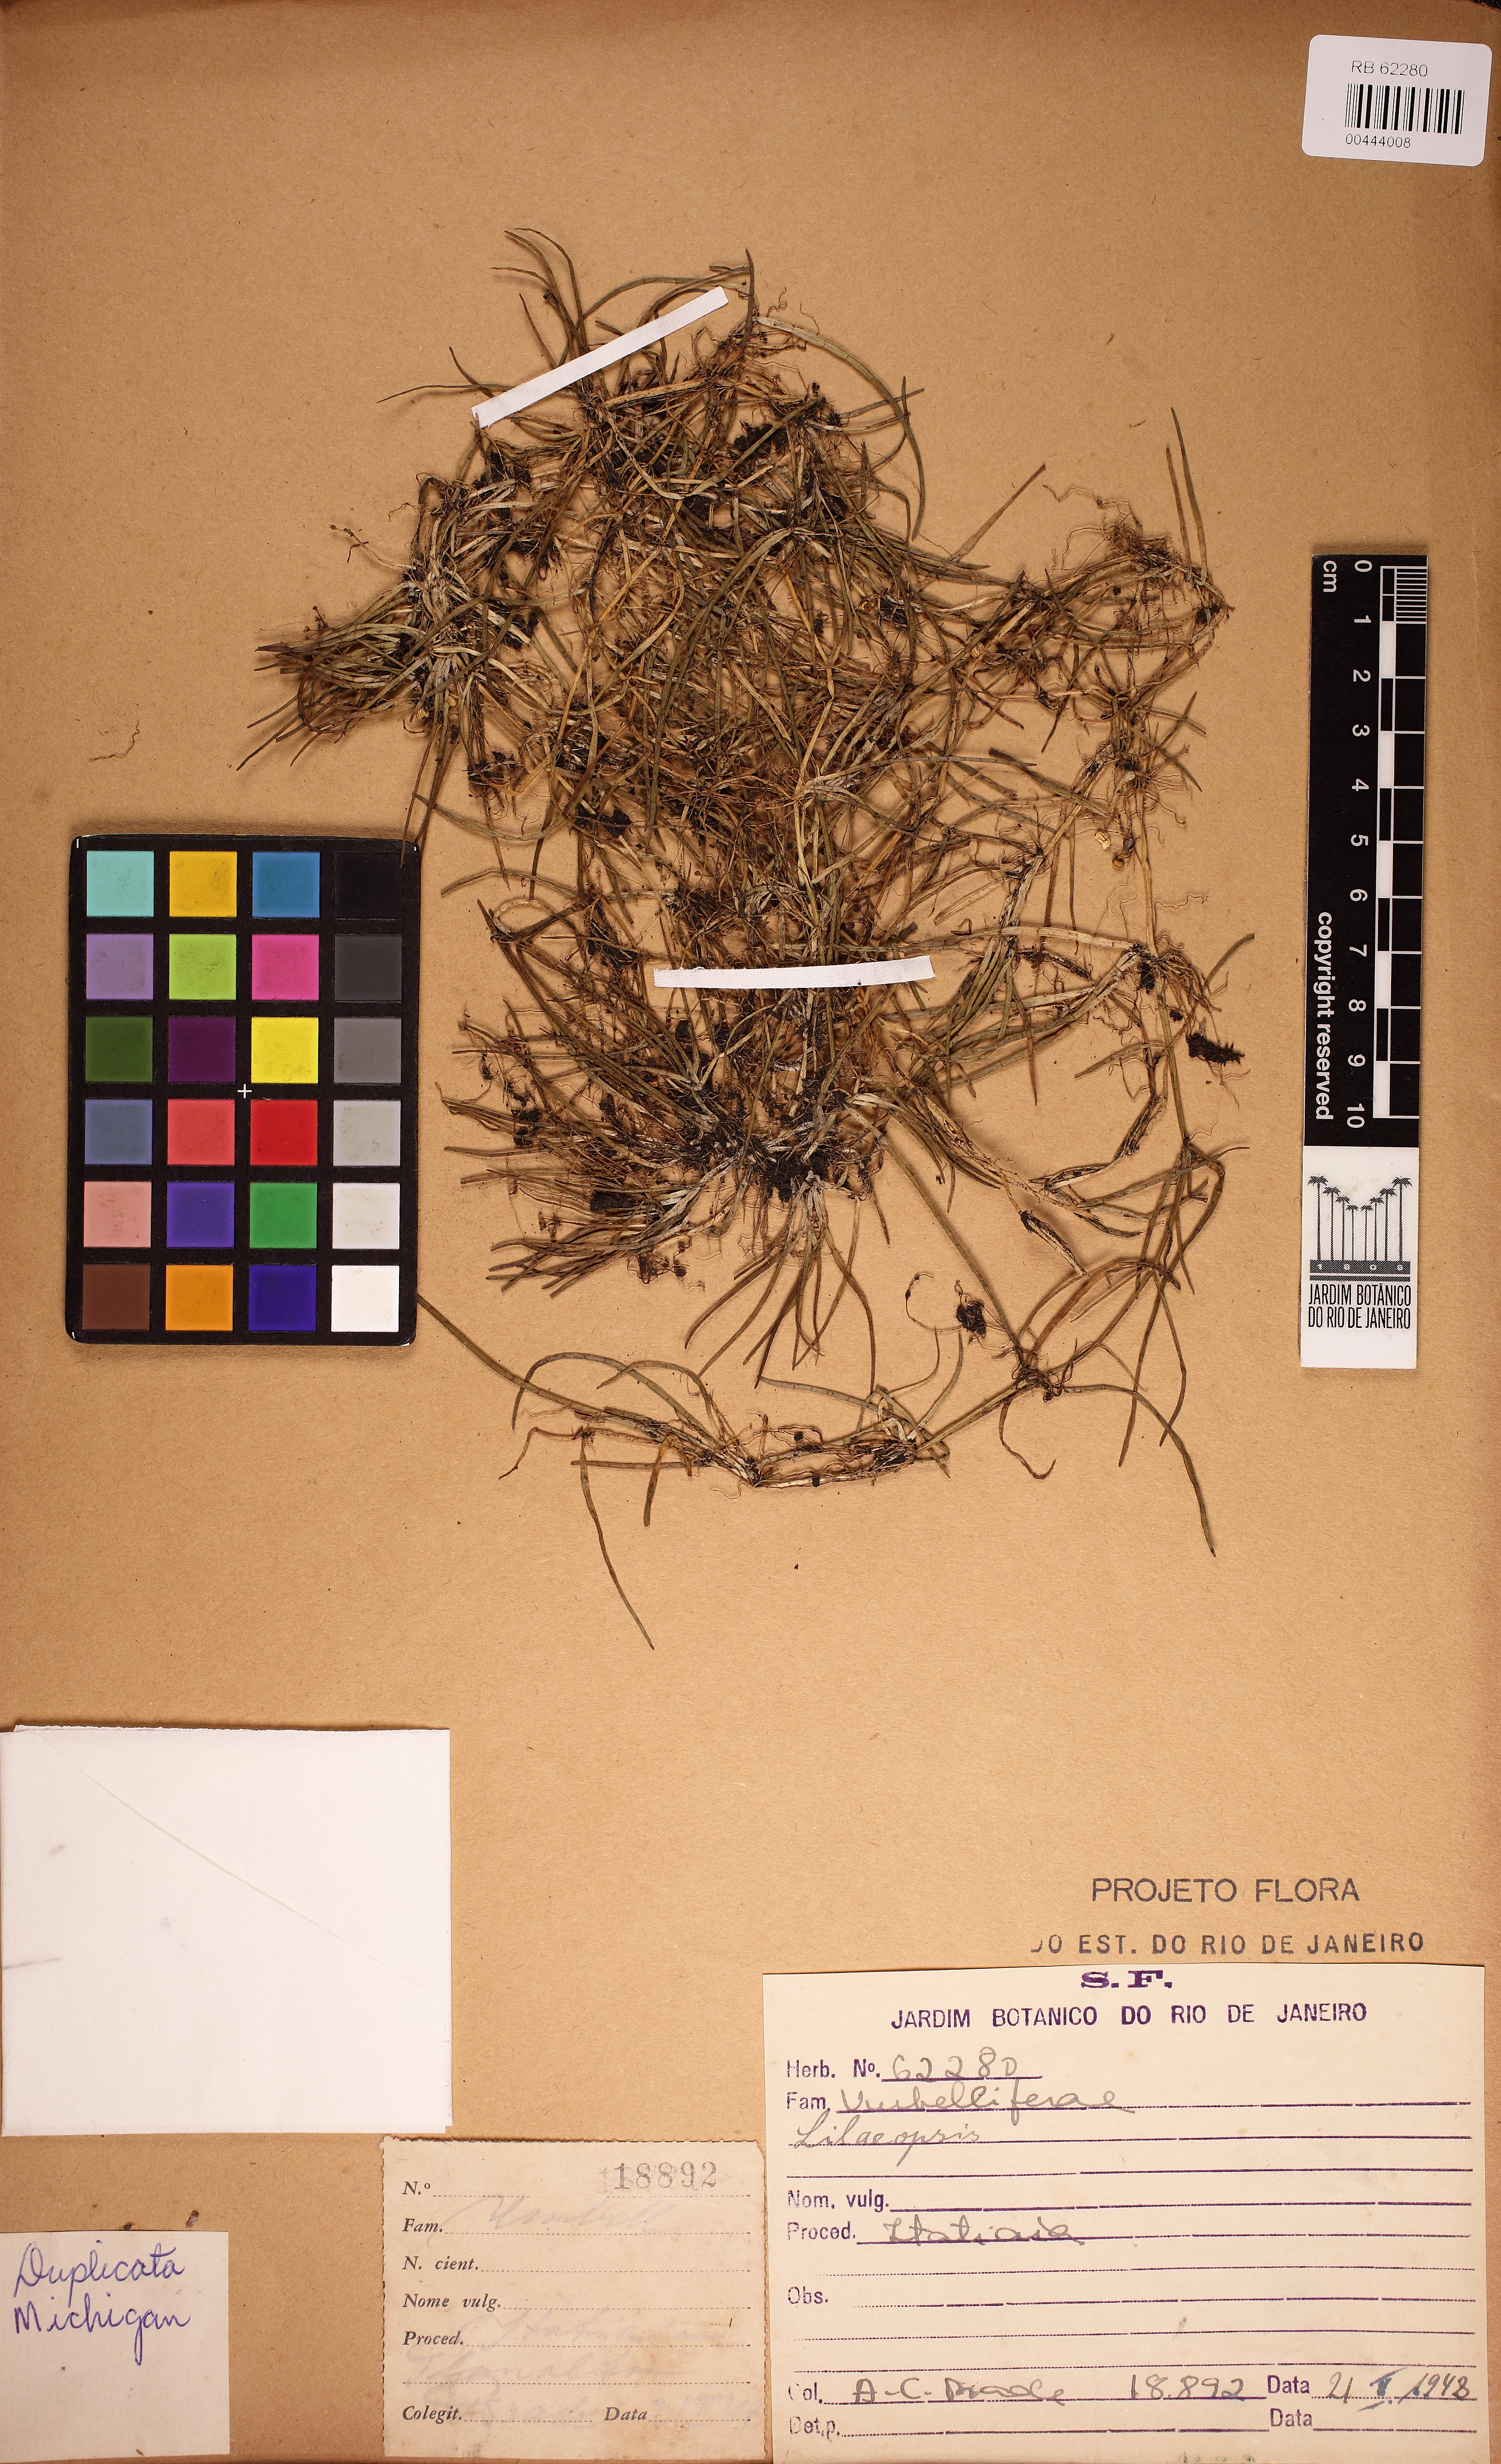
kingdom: Plantae
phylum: Tracheophyta
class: Magnoliopsida
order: Apiales
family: Apiaceae
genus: Lilaeopsis
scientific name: Lilaeopsis
